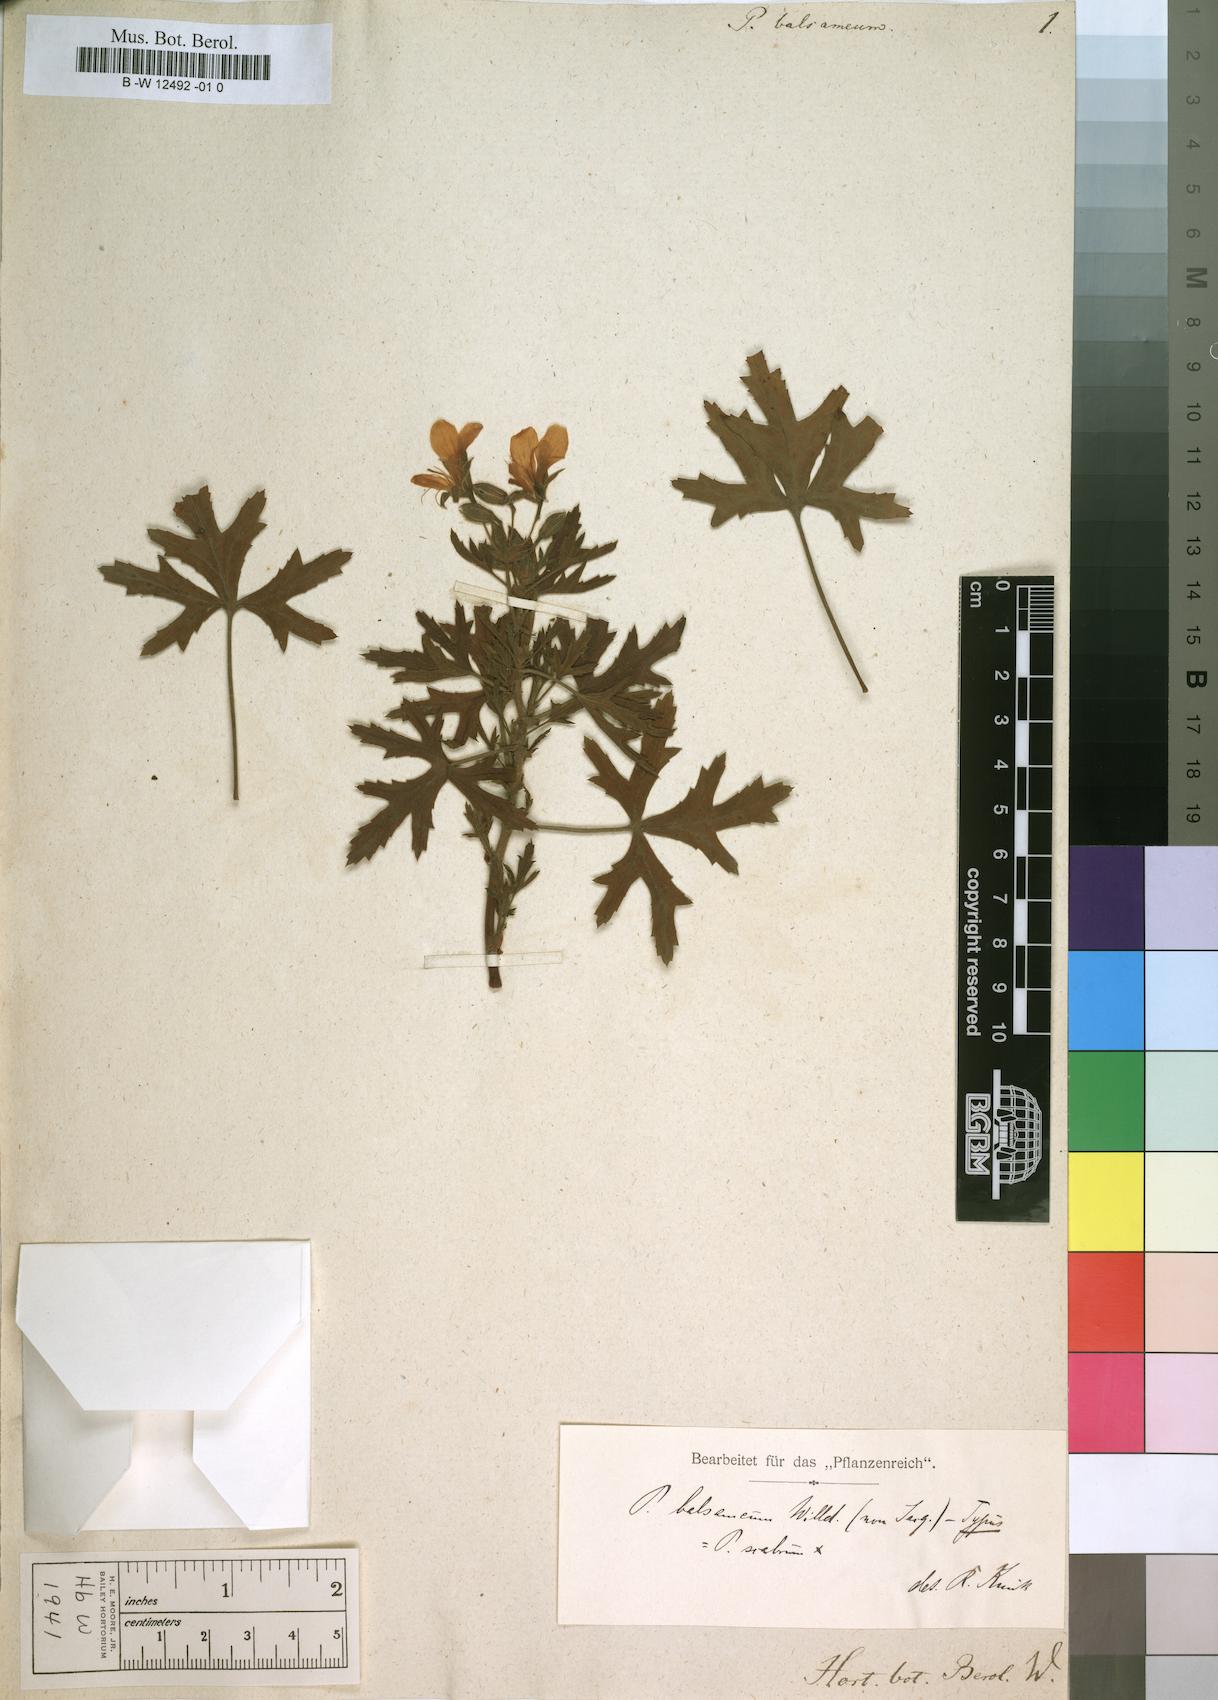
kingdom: Plantae
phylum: Tracheophyta
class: Magnoliopsida
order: Geraniales
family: Geraniaceae
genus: Pelargonium
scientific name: Pelargonium scabrum
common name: Apricot geranium
